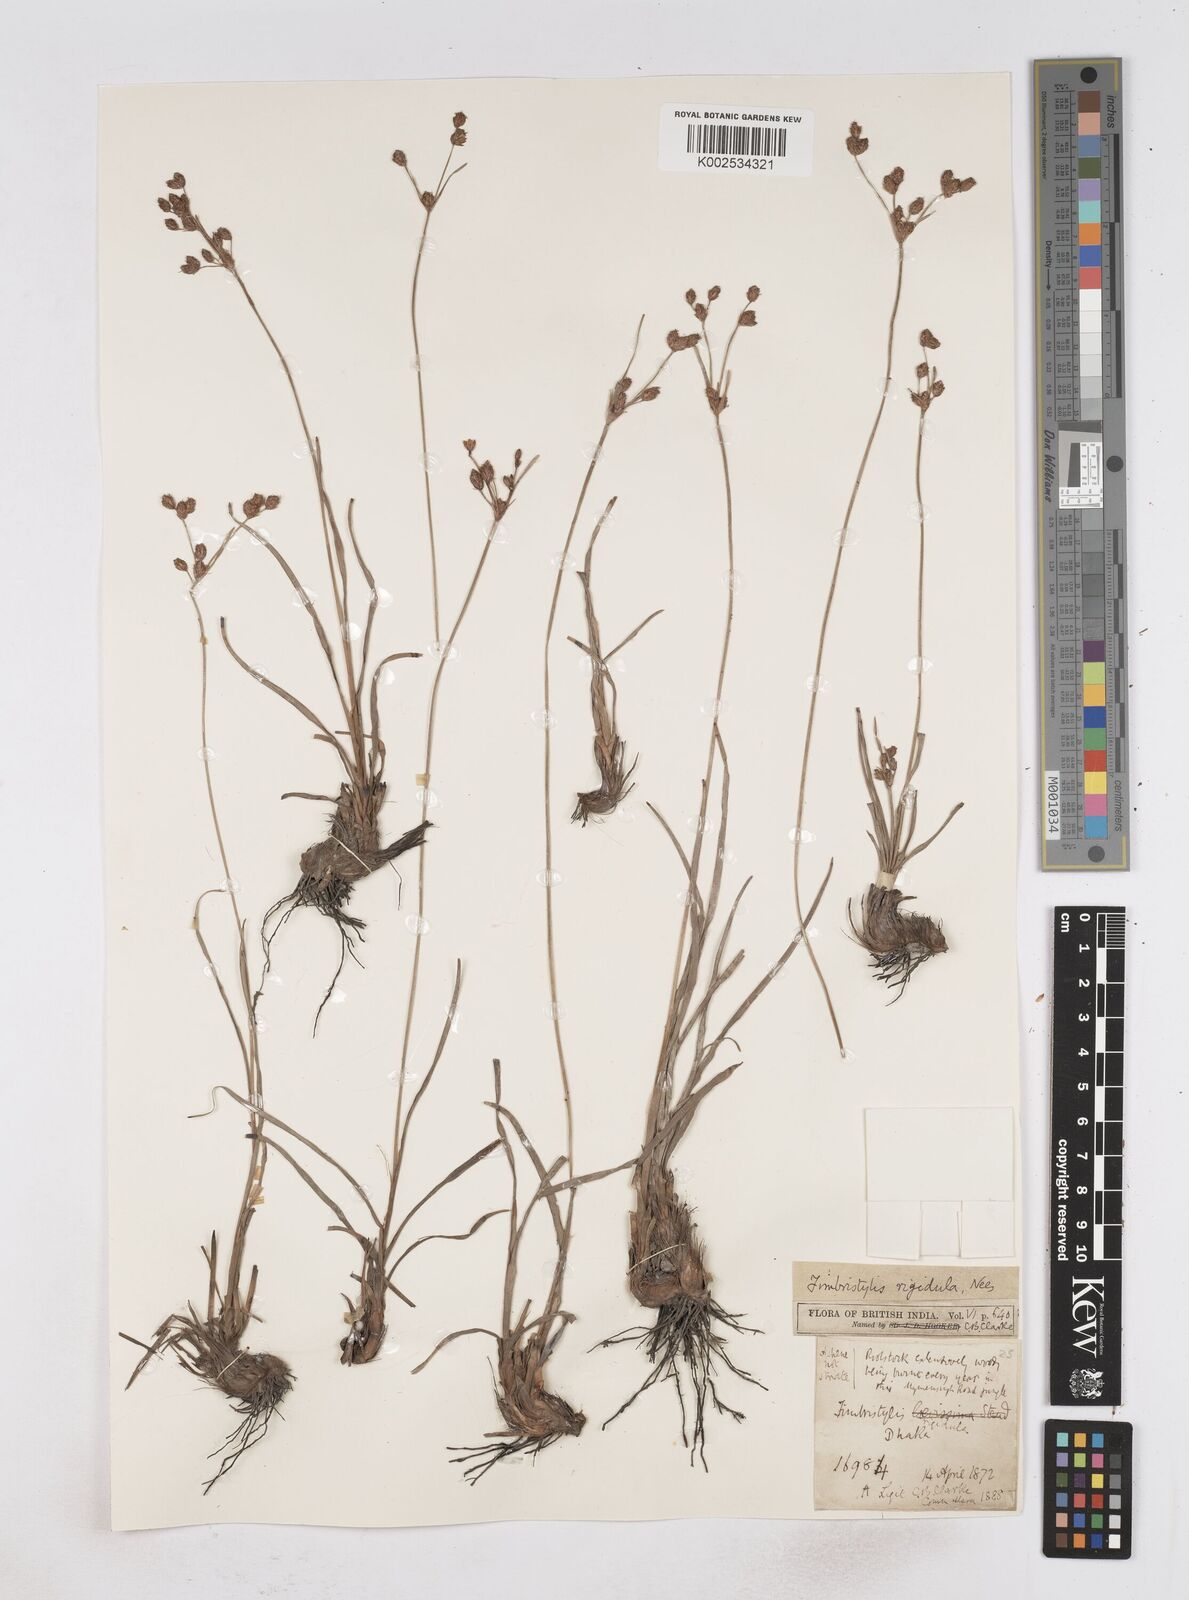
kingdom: Plantae
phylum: Tracheophyta
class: Liliopsida
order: Poales
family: Cyperaceae
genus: Fimbristylis
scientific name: Fimbristylis rigidula
